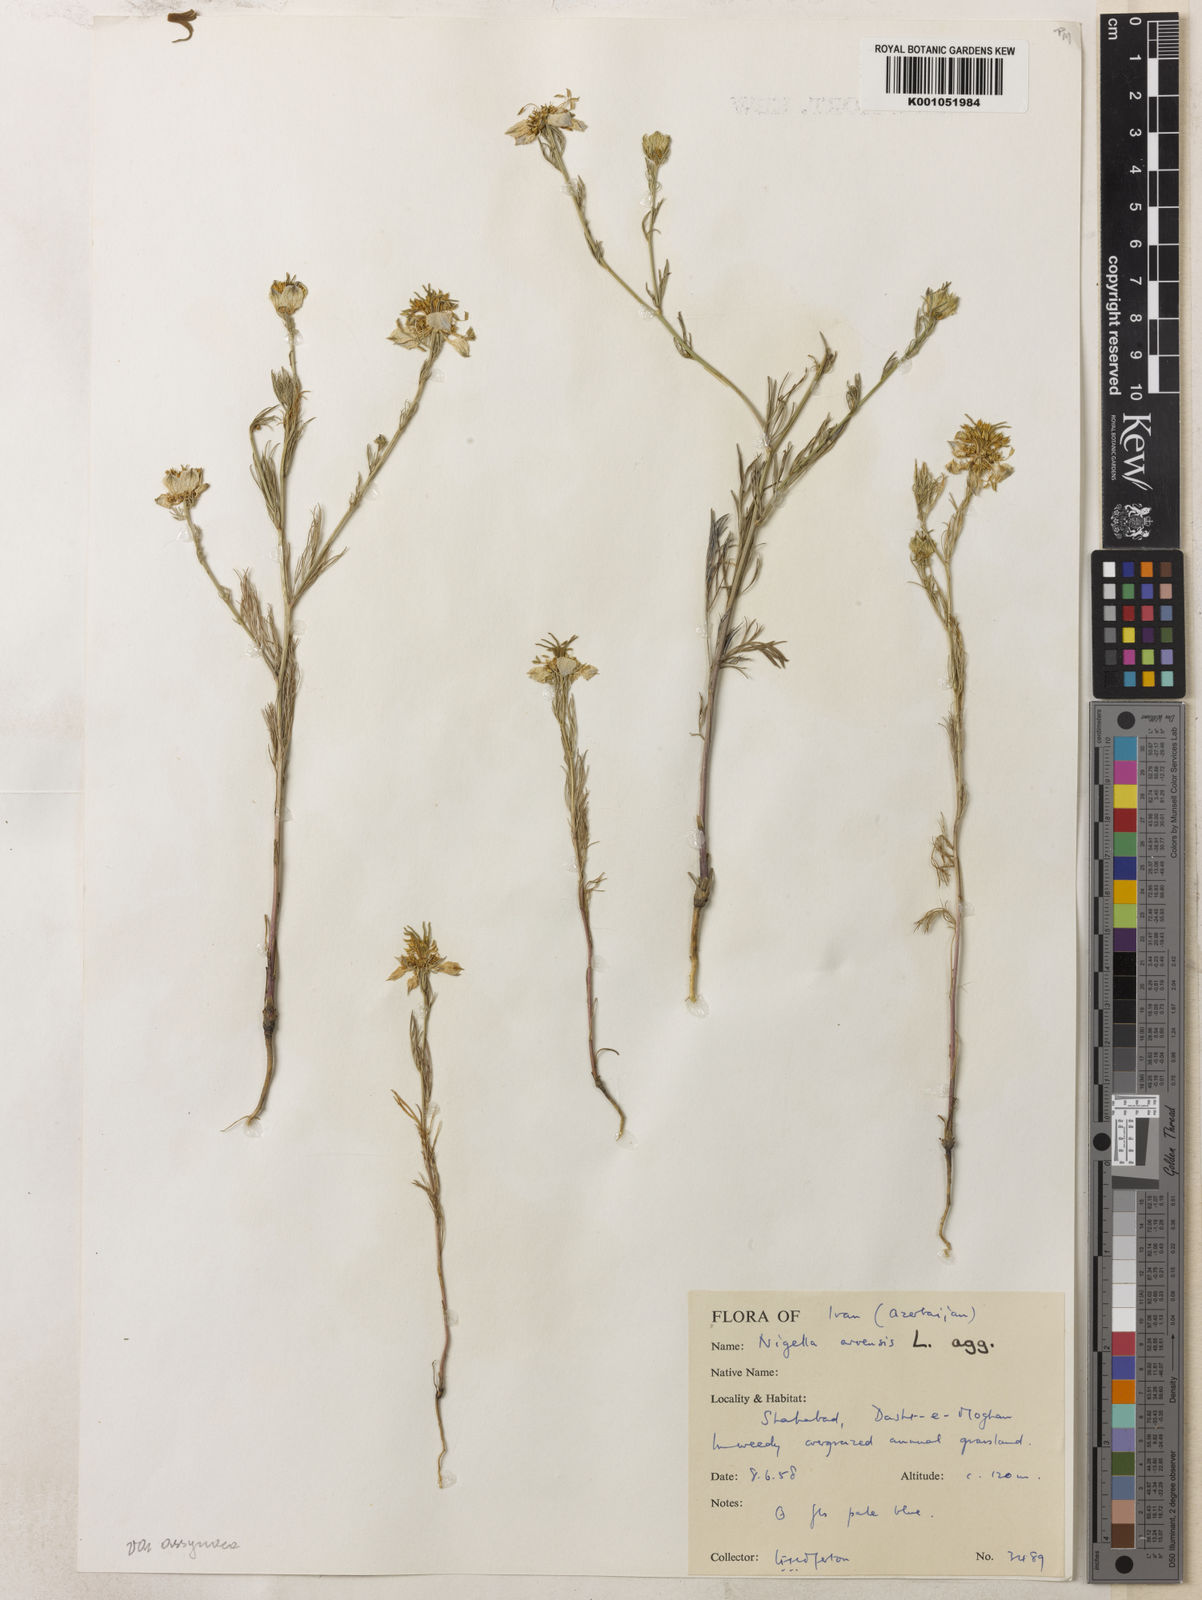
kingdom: Plantae
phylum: Tracheophyta
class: Magnoliopsida
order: Ranunculales
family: Ranunculaceae
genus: Nigella
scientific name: Nigella deserti
